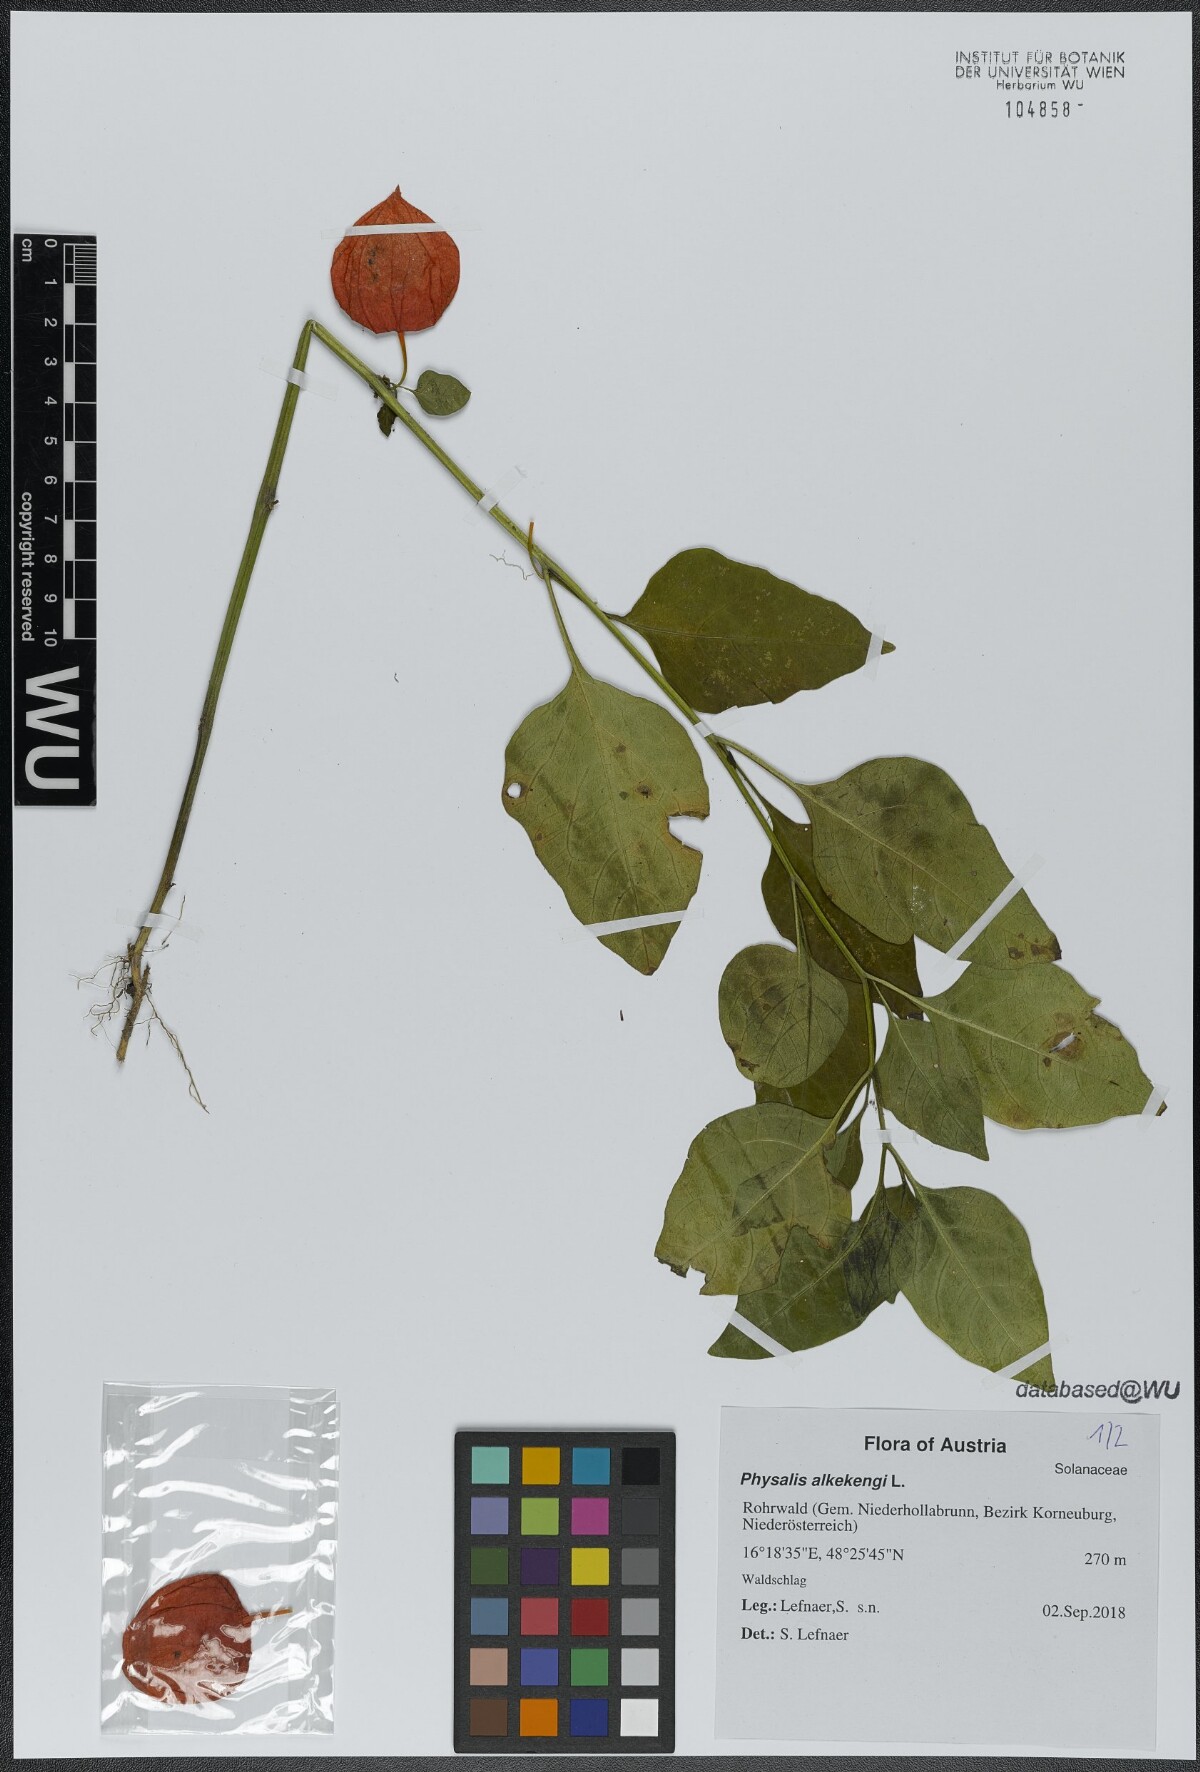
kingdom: Plantae
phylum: Tracheophyta
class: Magnoliopsida
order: Solanales
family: Solanaceae
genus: Alkekengi
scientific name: Alkekengi officinarum
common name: Japanese-lantern
